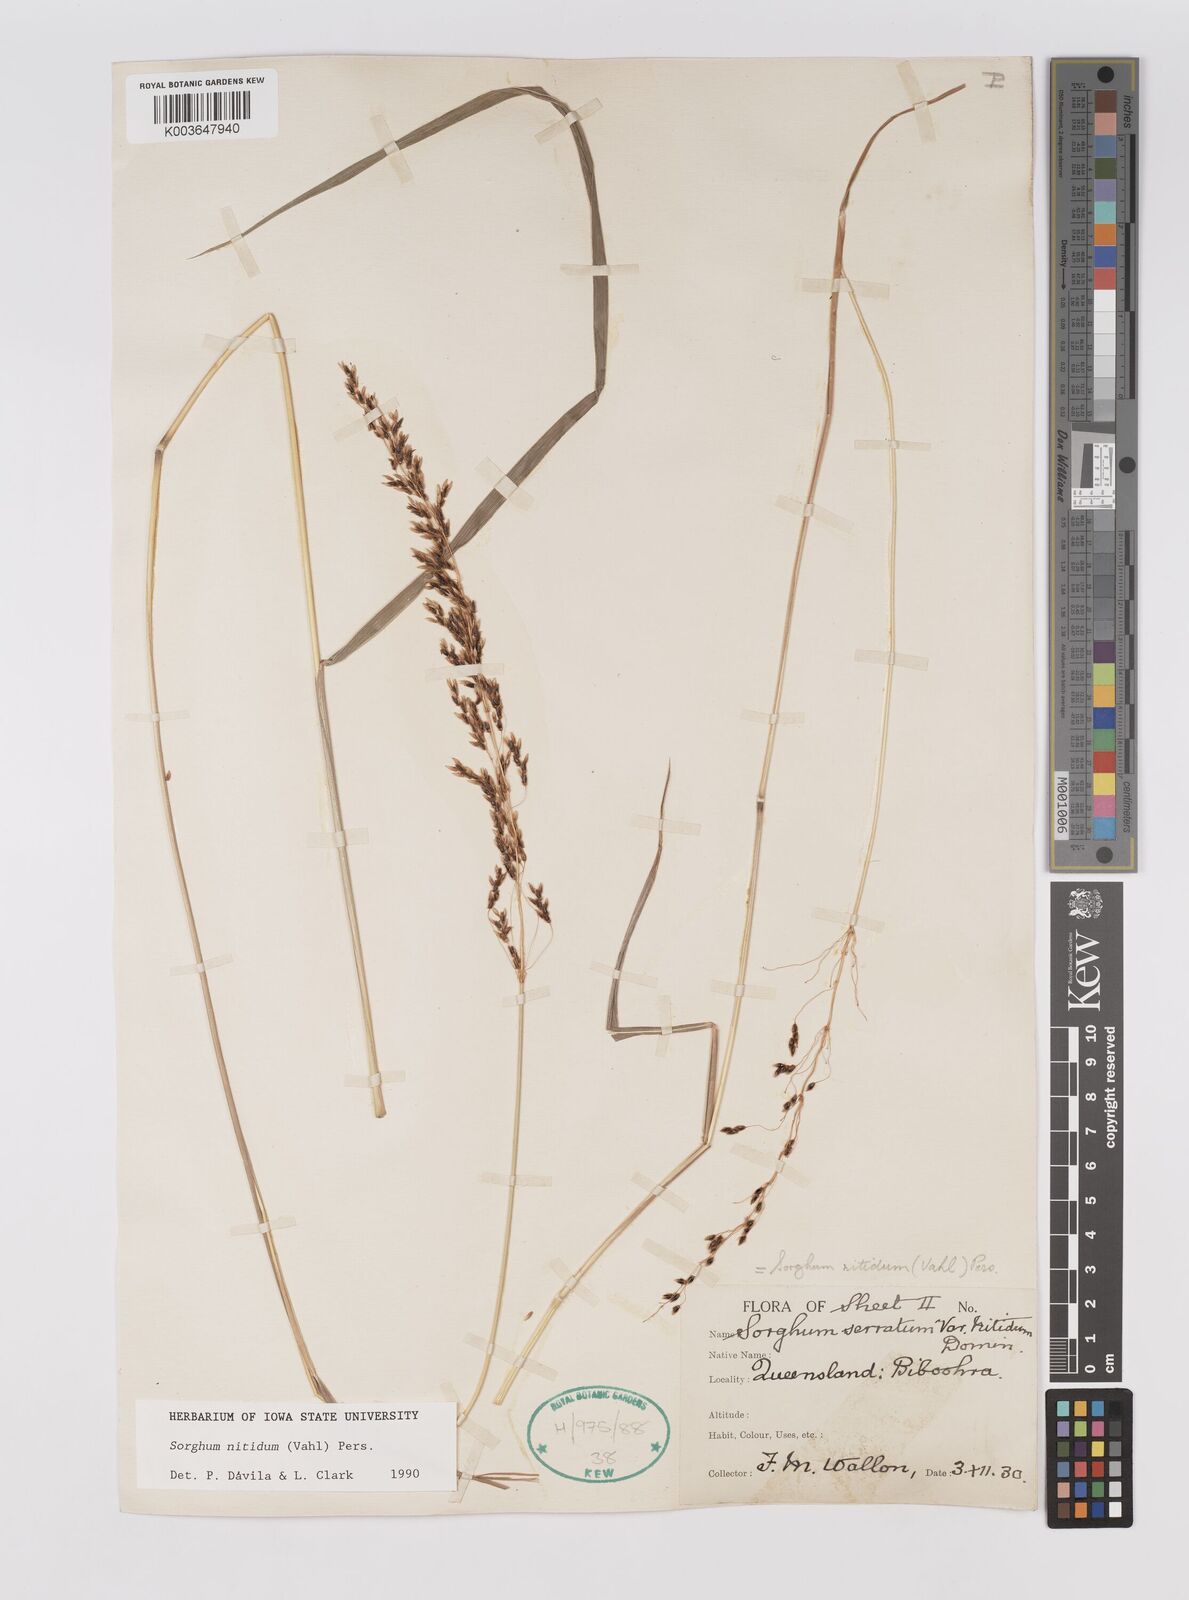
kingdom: Plantae
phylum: Tracheophyta
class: Liliopsida
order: Poales
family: Poaceae
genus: Sorghum
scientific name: Sorghum nitidum
